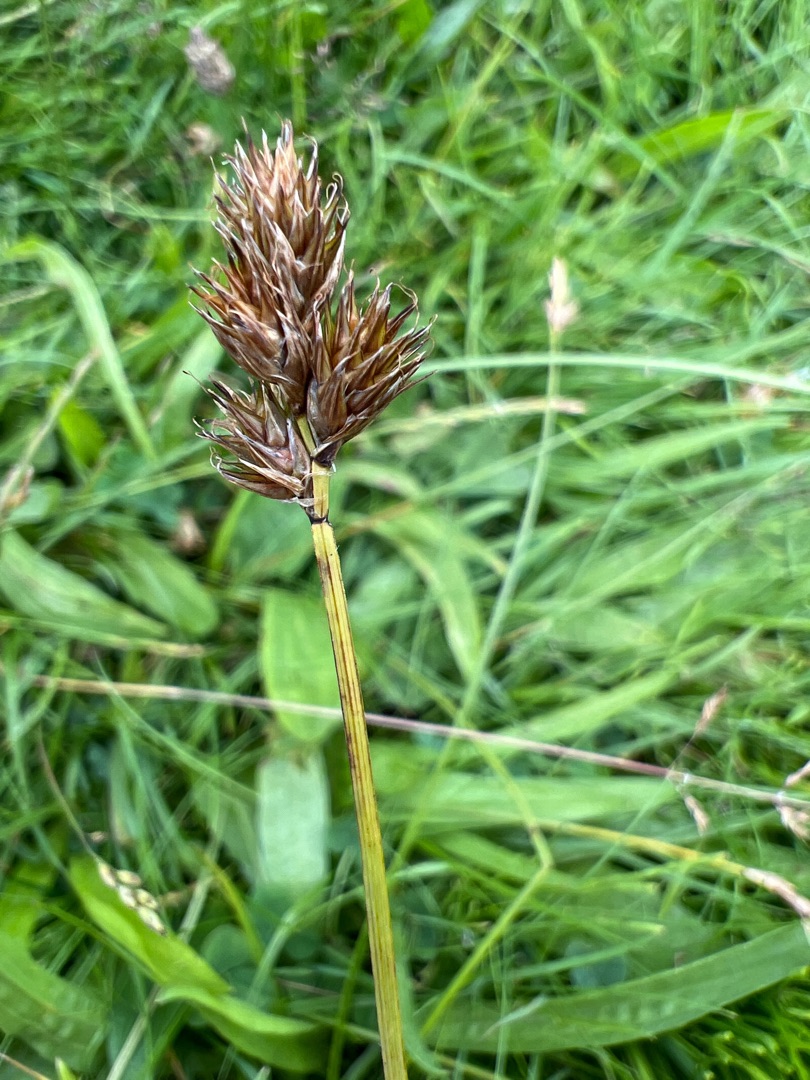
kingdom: Plantae
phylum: Tracheophyta
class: Liliopsida
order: Poales
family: Cyperaceae
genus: Carex
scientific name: Carex leporina
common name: Hare-star
